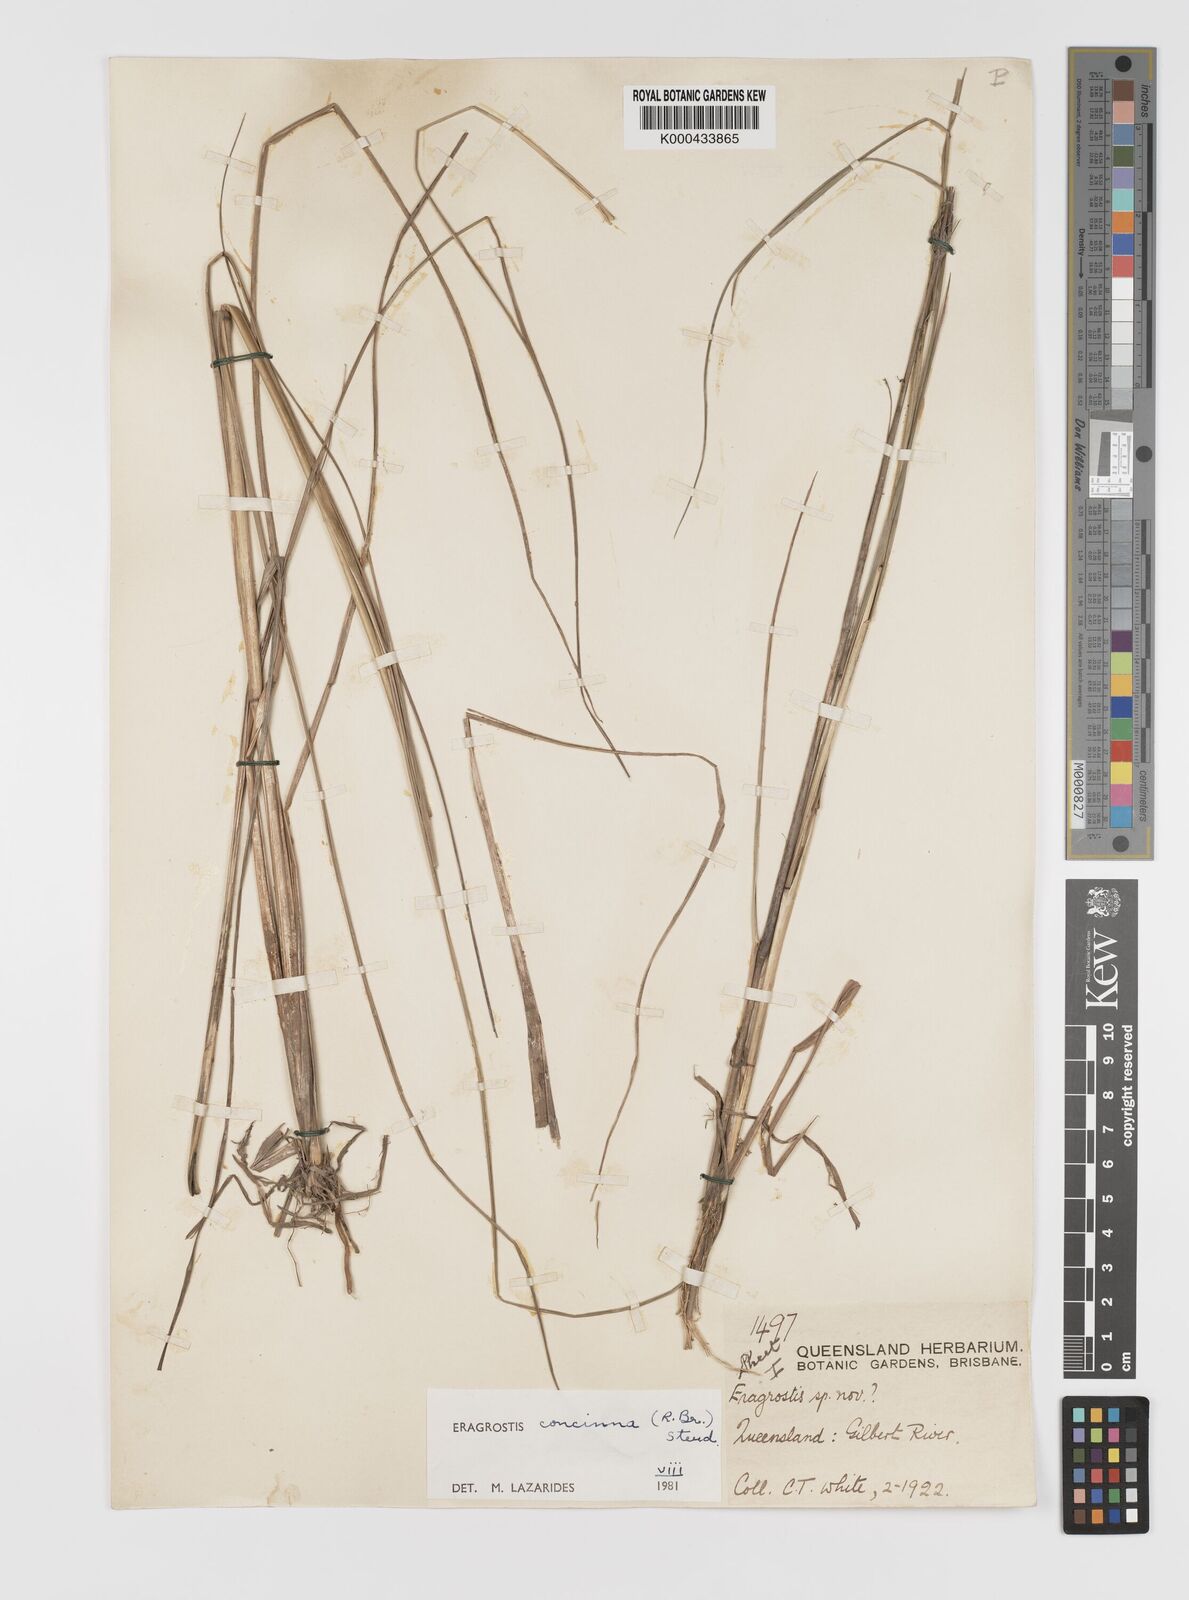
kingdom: Plantae
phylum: Tracheophyta
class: Liliopsida
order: Poales
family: Poaceae
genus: Eragrostis
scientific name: Eragrostis concinna
